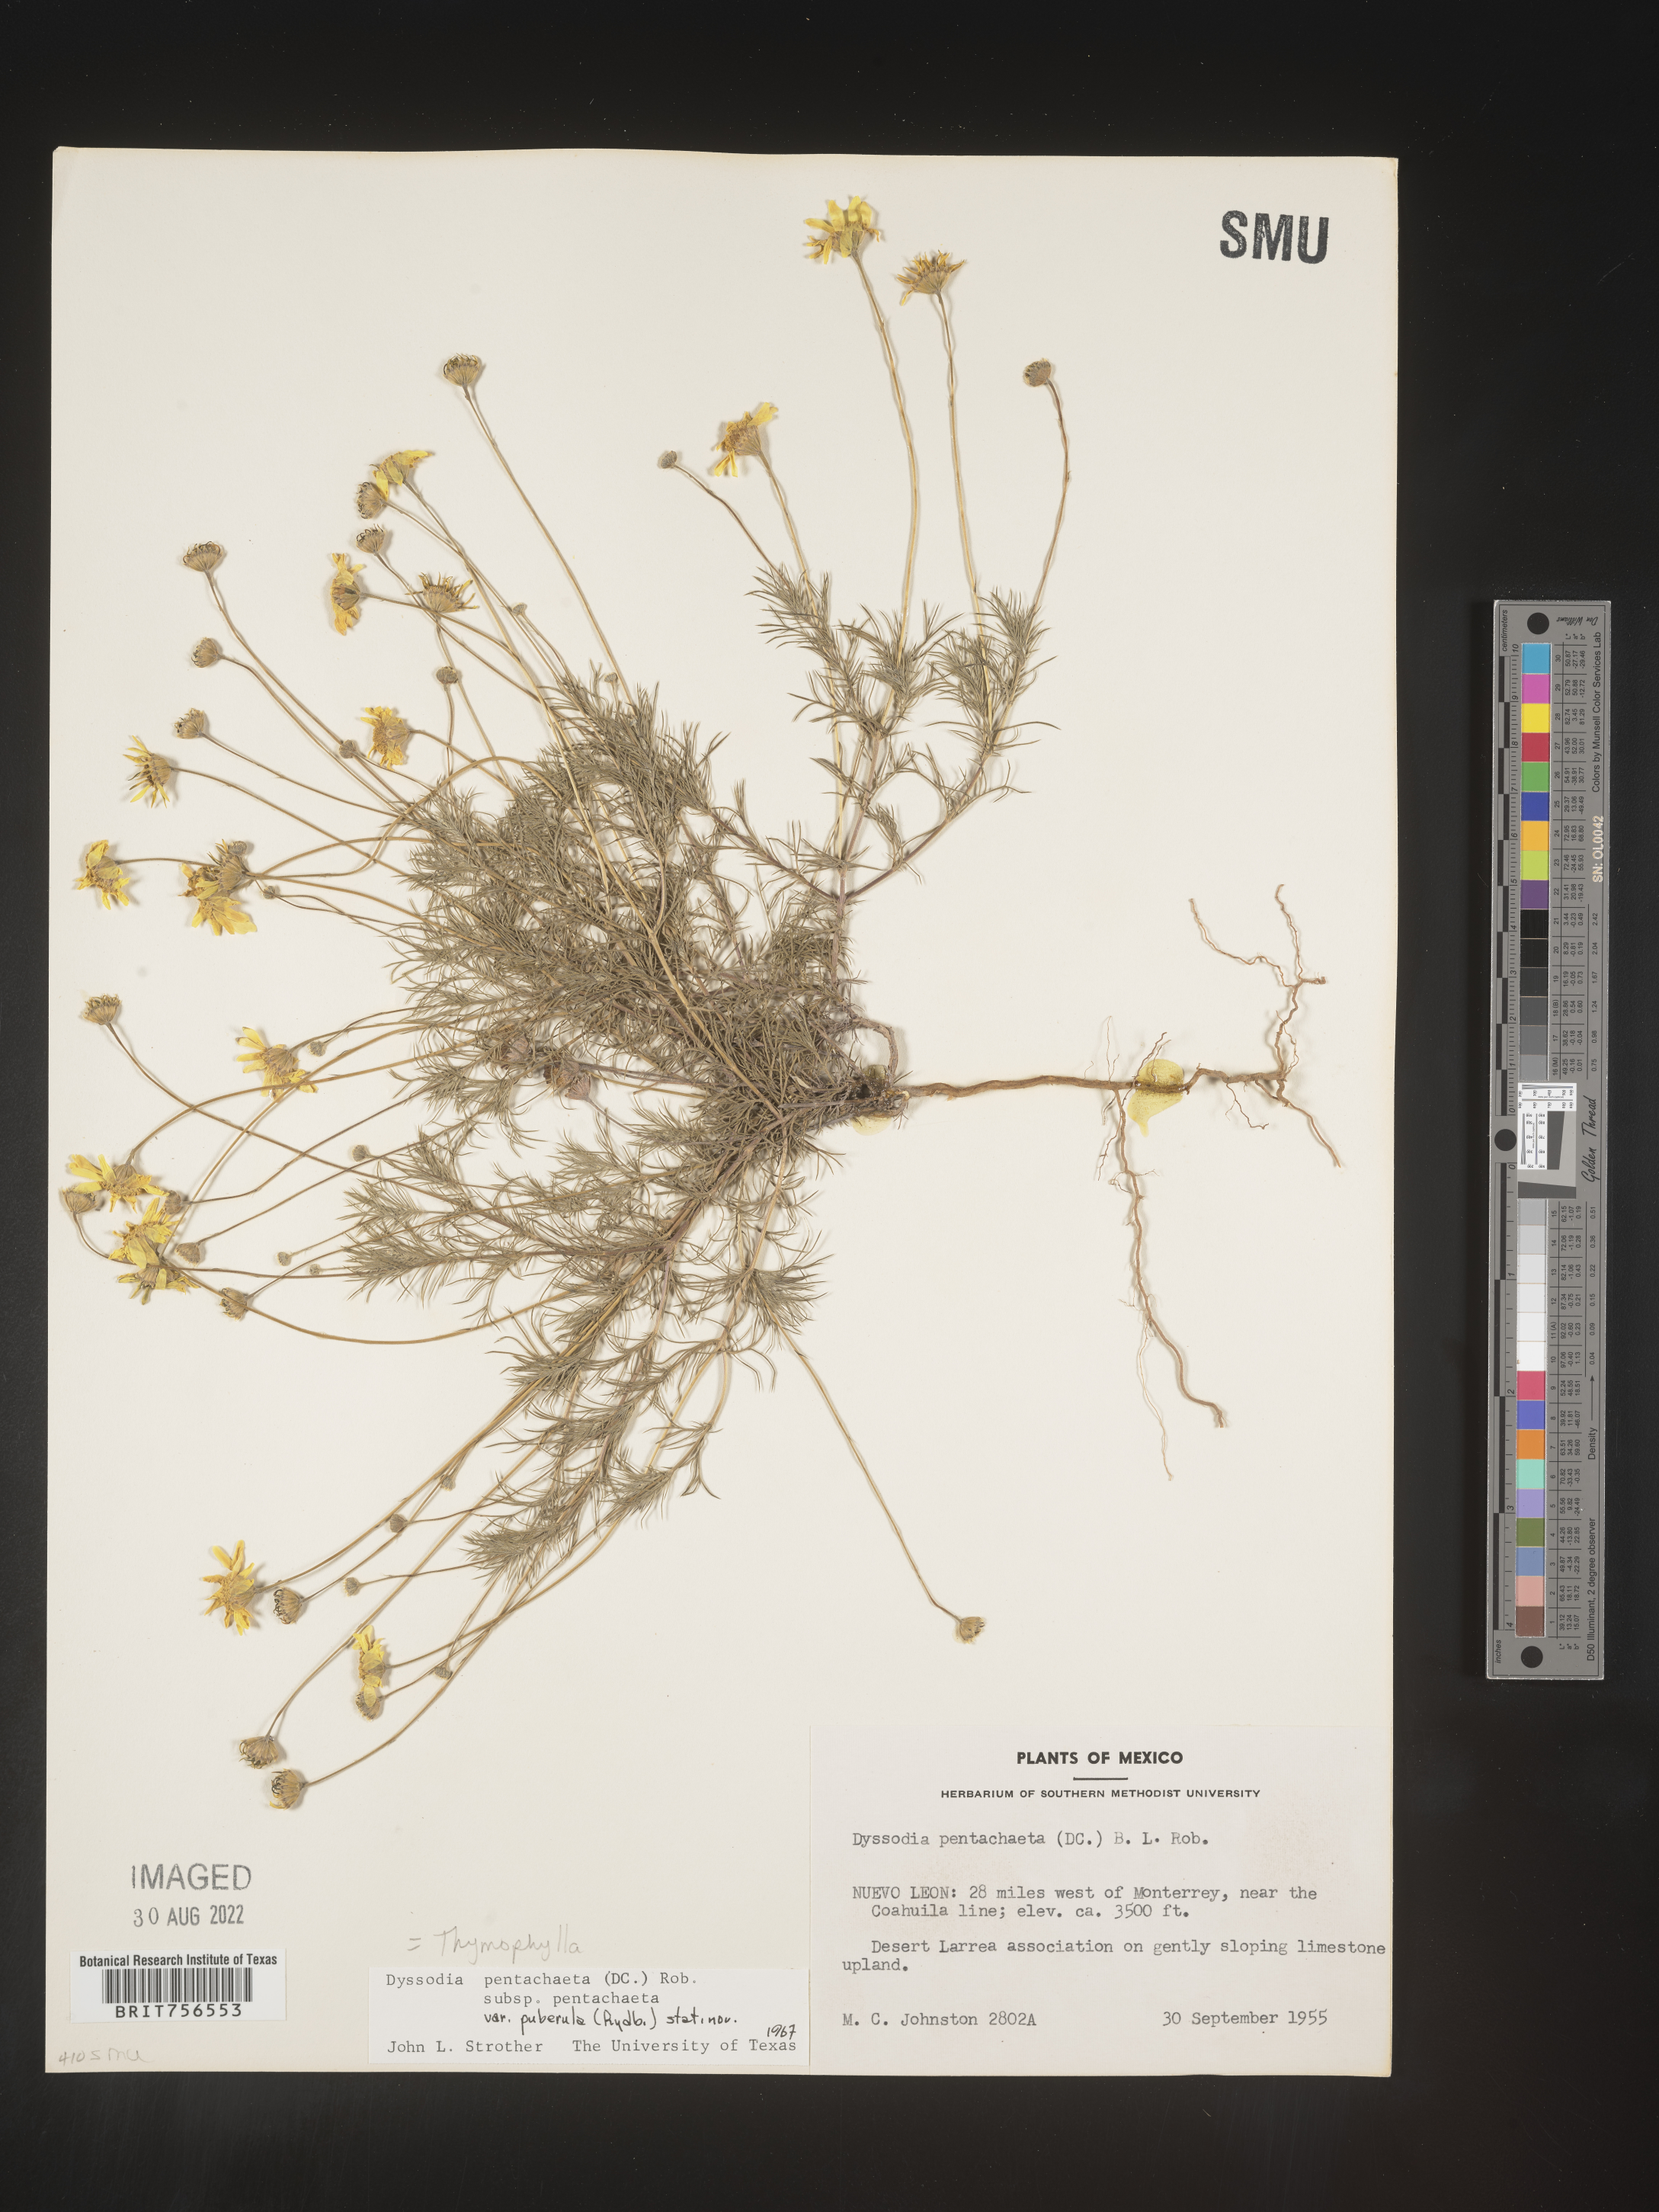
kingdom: Plantae
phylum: Tracheophyta
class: Magnoliopsida
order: Asterales
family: Asteraceae
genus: Thymophylla
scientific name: Thymophylla pentachaeta
